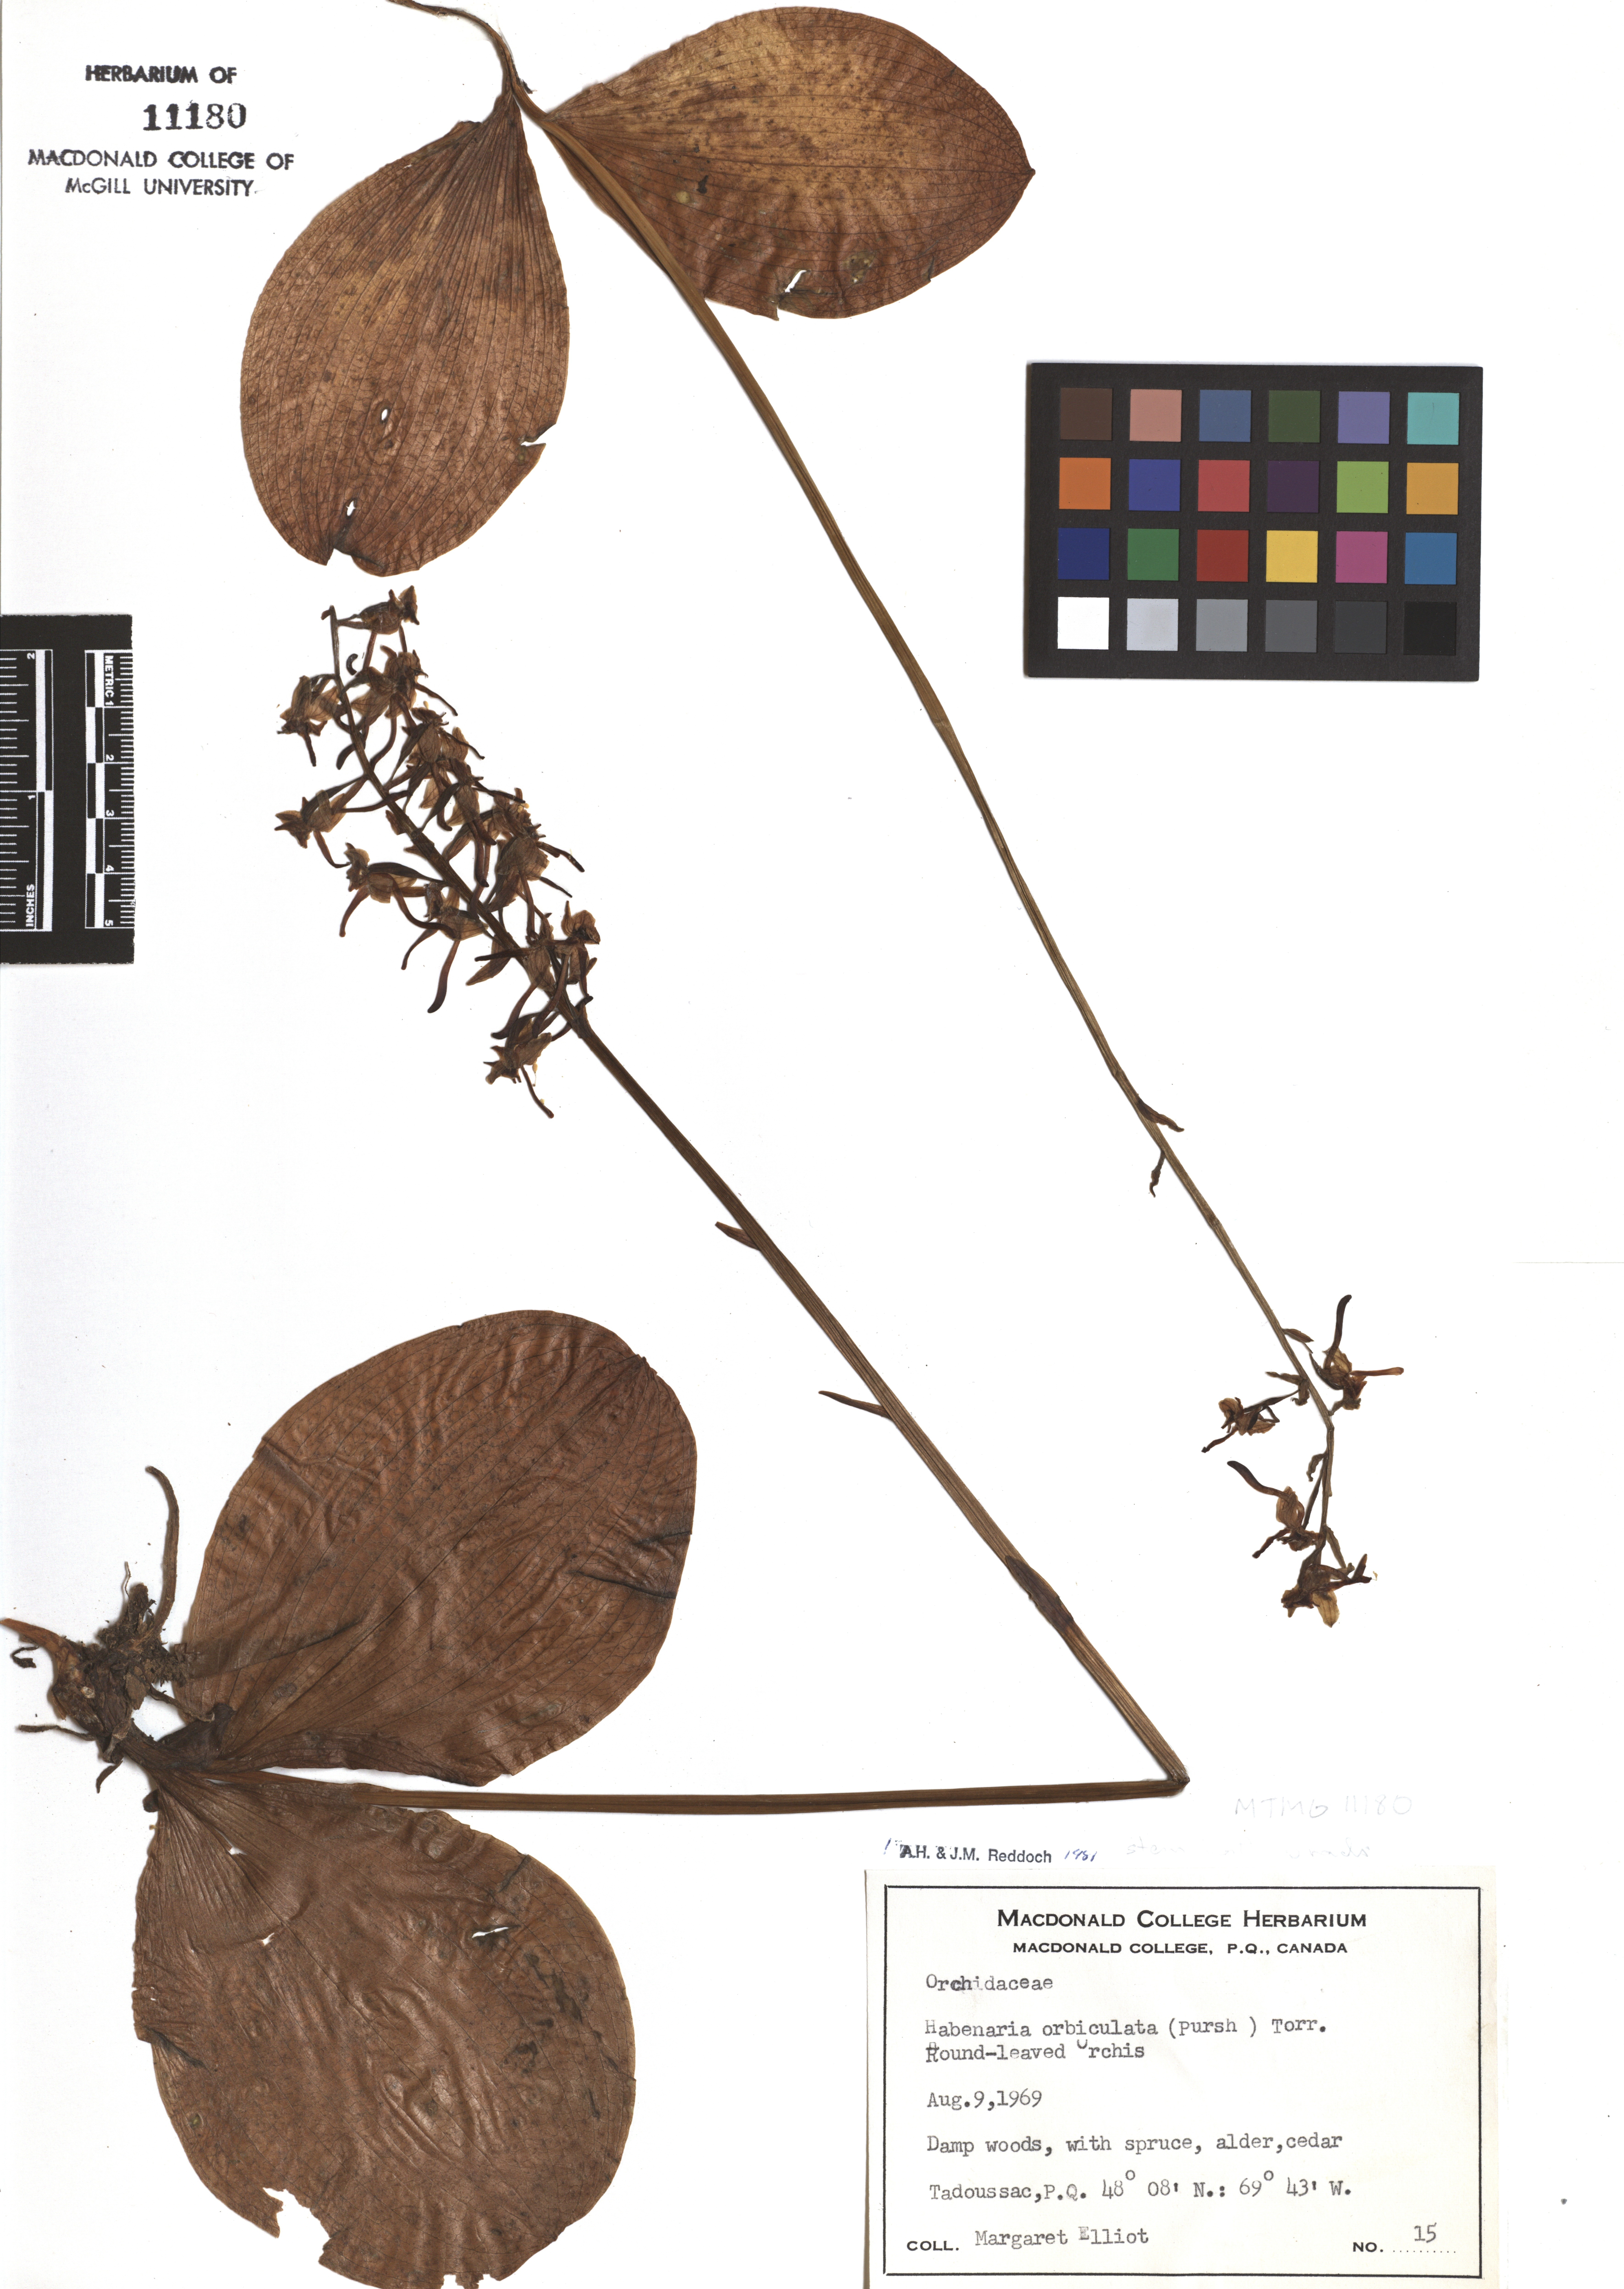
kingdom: Plantae
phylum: Tracheophyta
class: Liliopsida
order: Asparagales
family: Orchidaceae
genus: Platanthera
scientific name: Platanthera orbiculata
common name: Large round-leaved orchid
